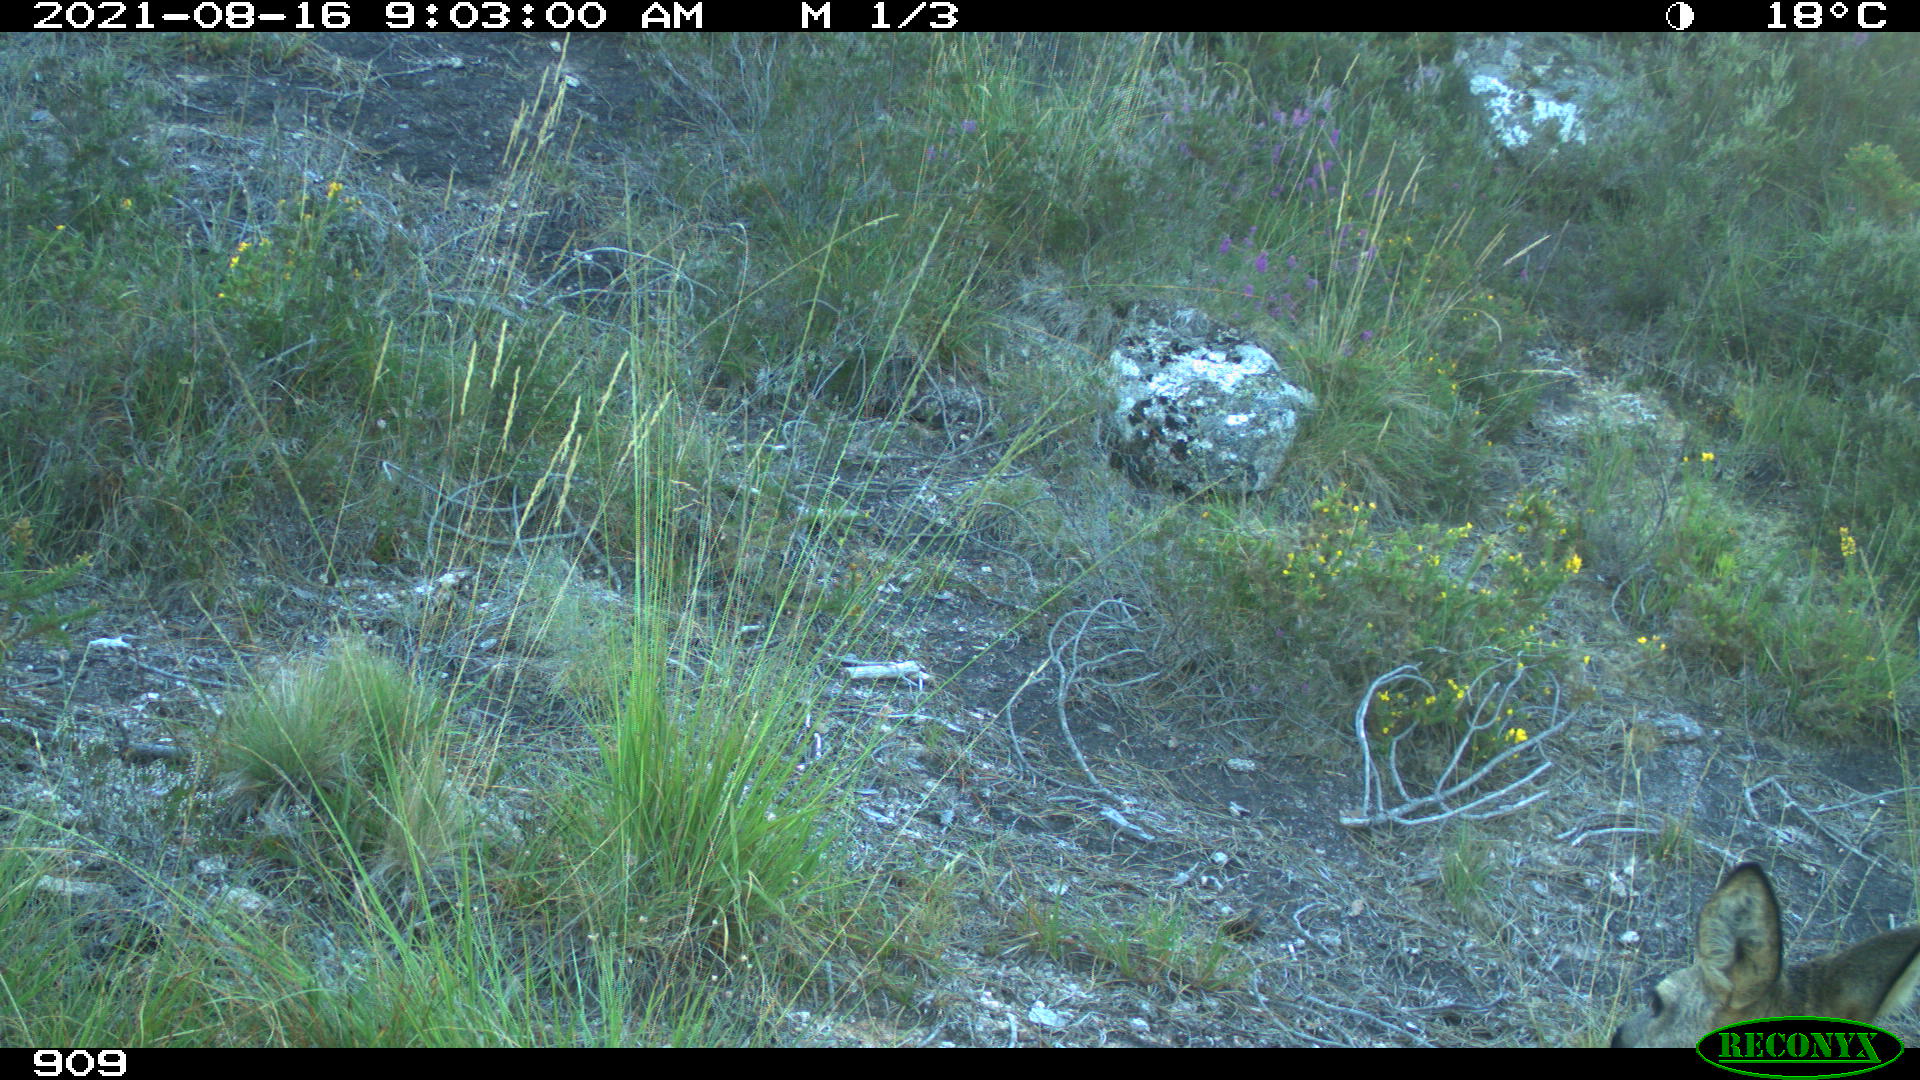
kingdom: Animalia
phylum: Chordata
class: Mammalia
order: Artiodactyla
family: Cervidae
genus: Capreolus
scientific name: Capreolus capreolus
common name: Western roe deer
